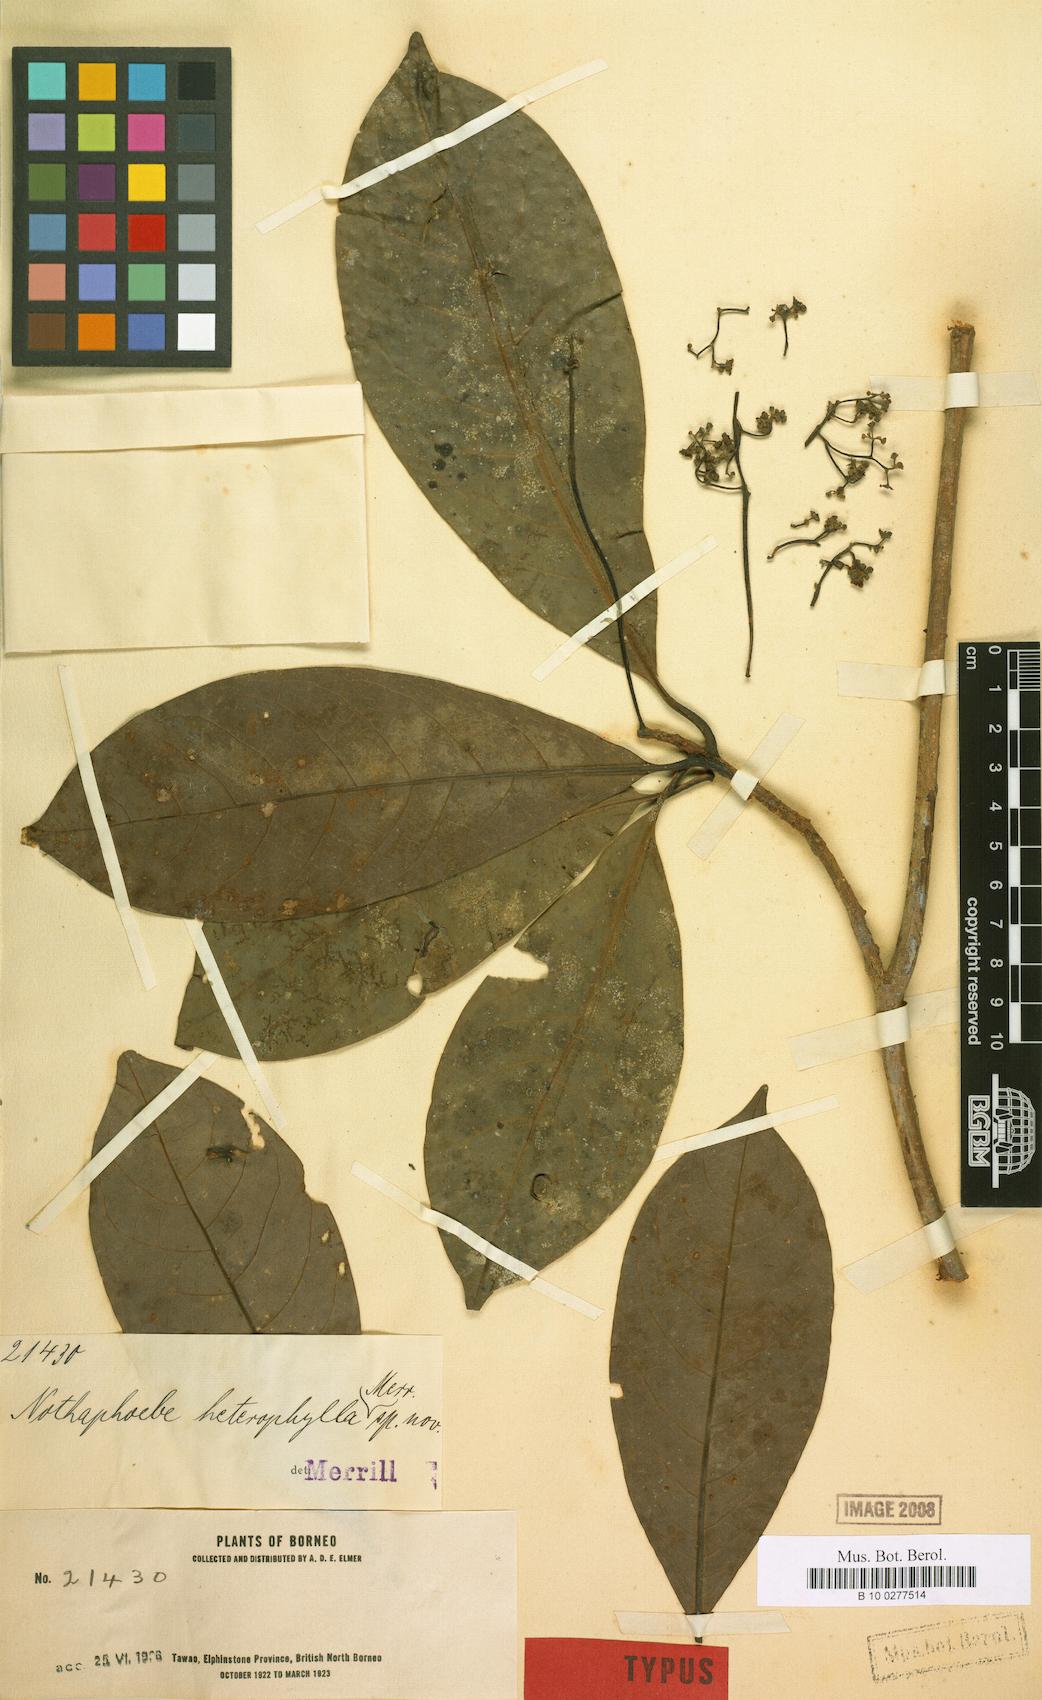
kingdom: Plantae
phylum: Tracheophyta
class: Magnoliopsida
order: Laurales
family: Lauraceae
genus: Nothaphoebe
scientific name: Nothaphoebe heterophylla
